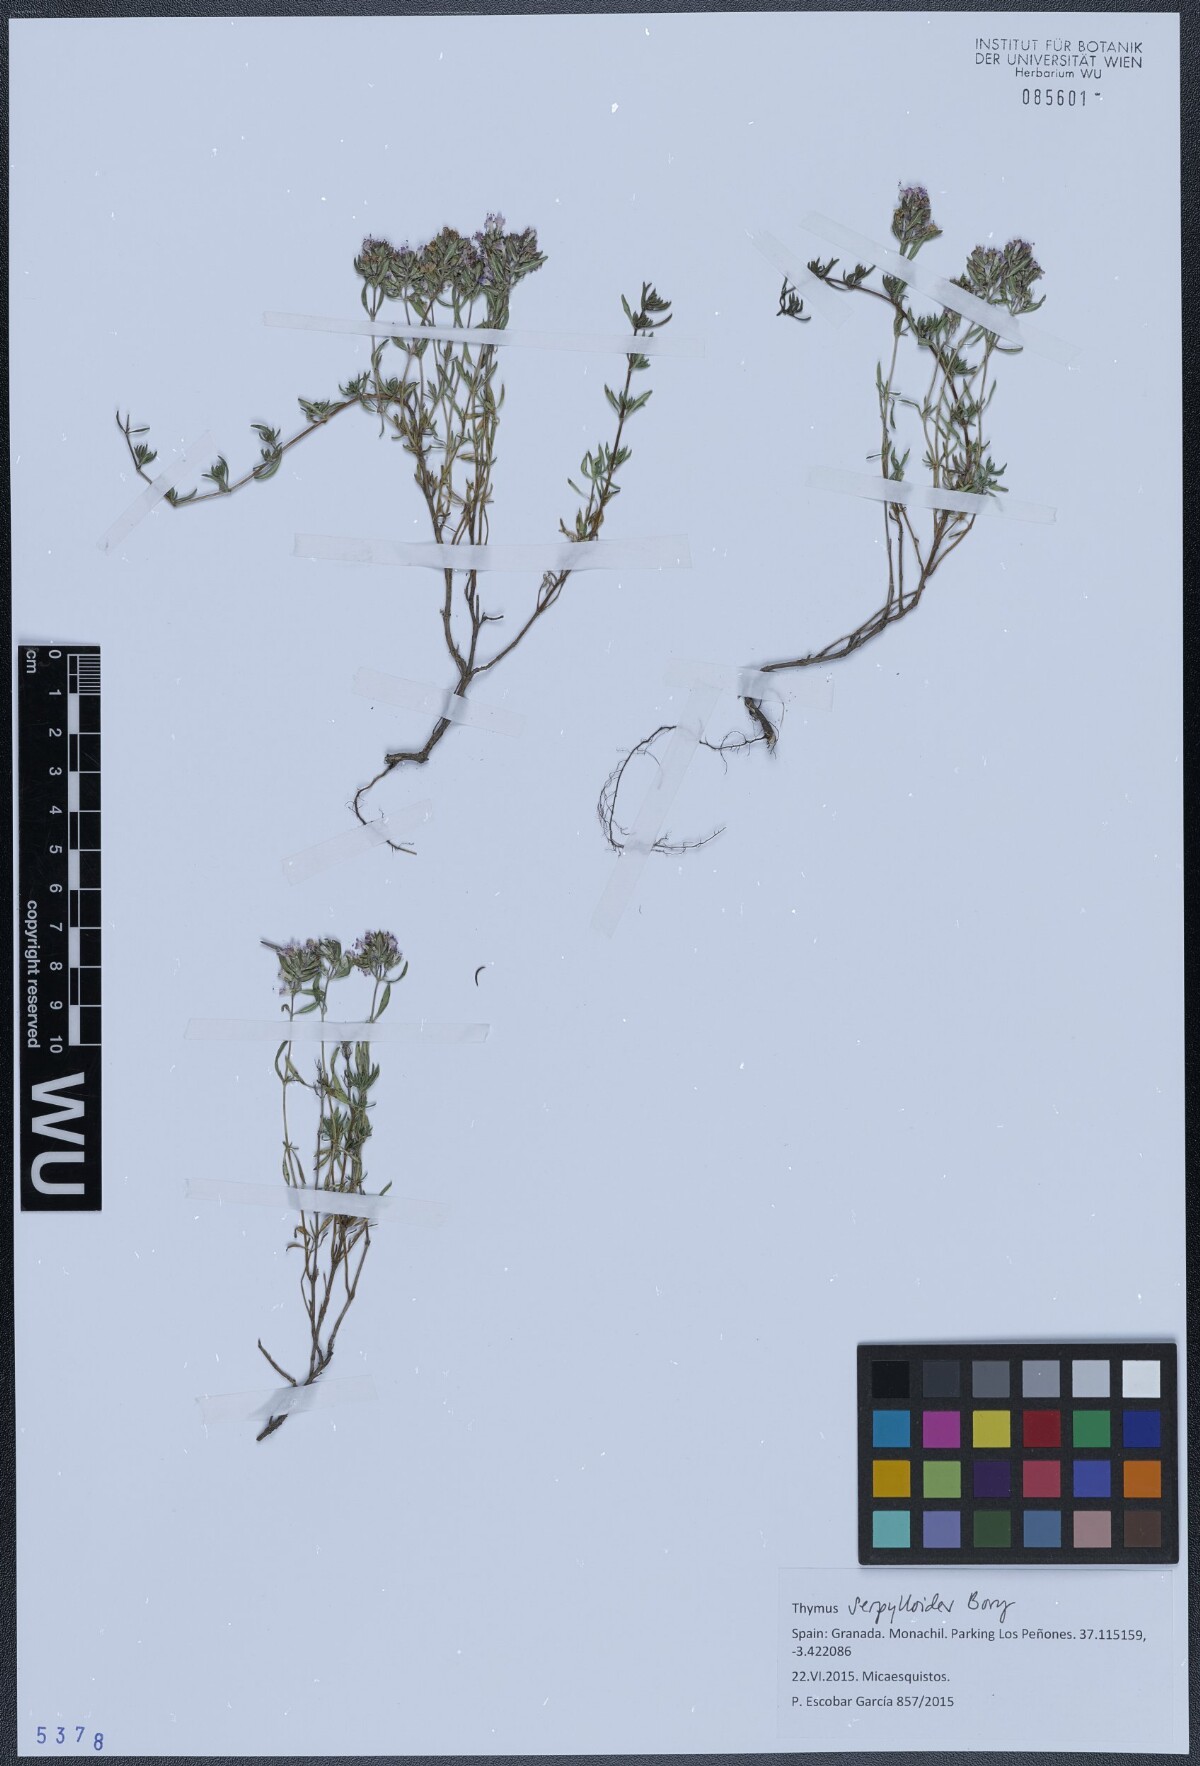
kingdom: Plantae
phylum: Tracheophyta
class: Magnoliopsida
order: Lamiales
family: Lamiaceae
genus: Thymus
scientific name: Thymus serpylloides
